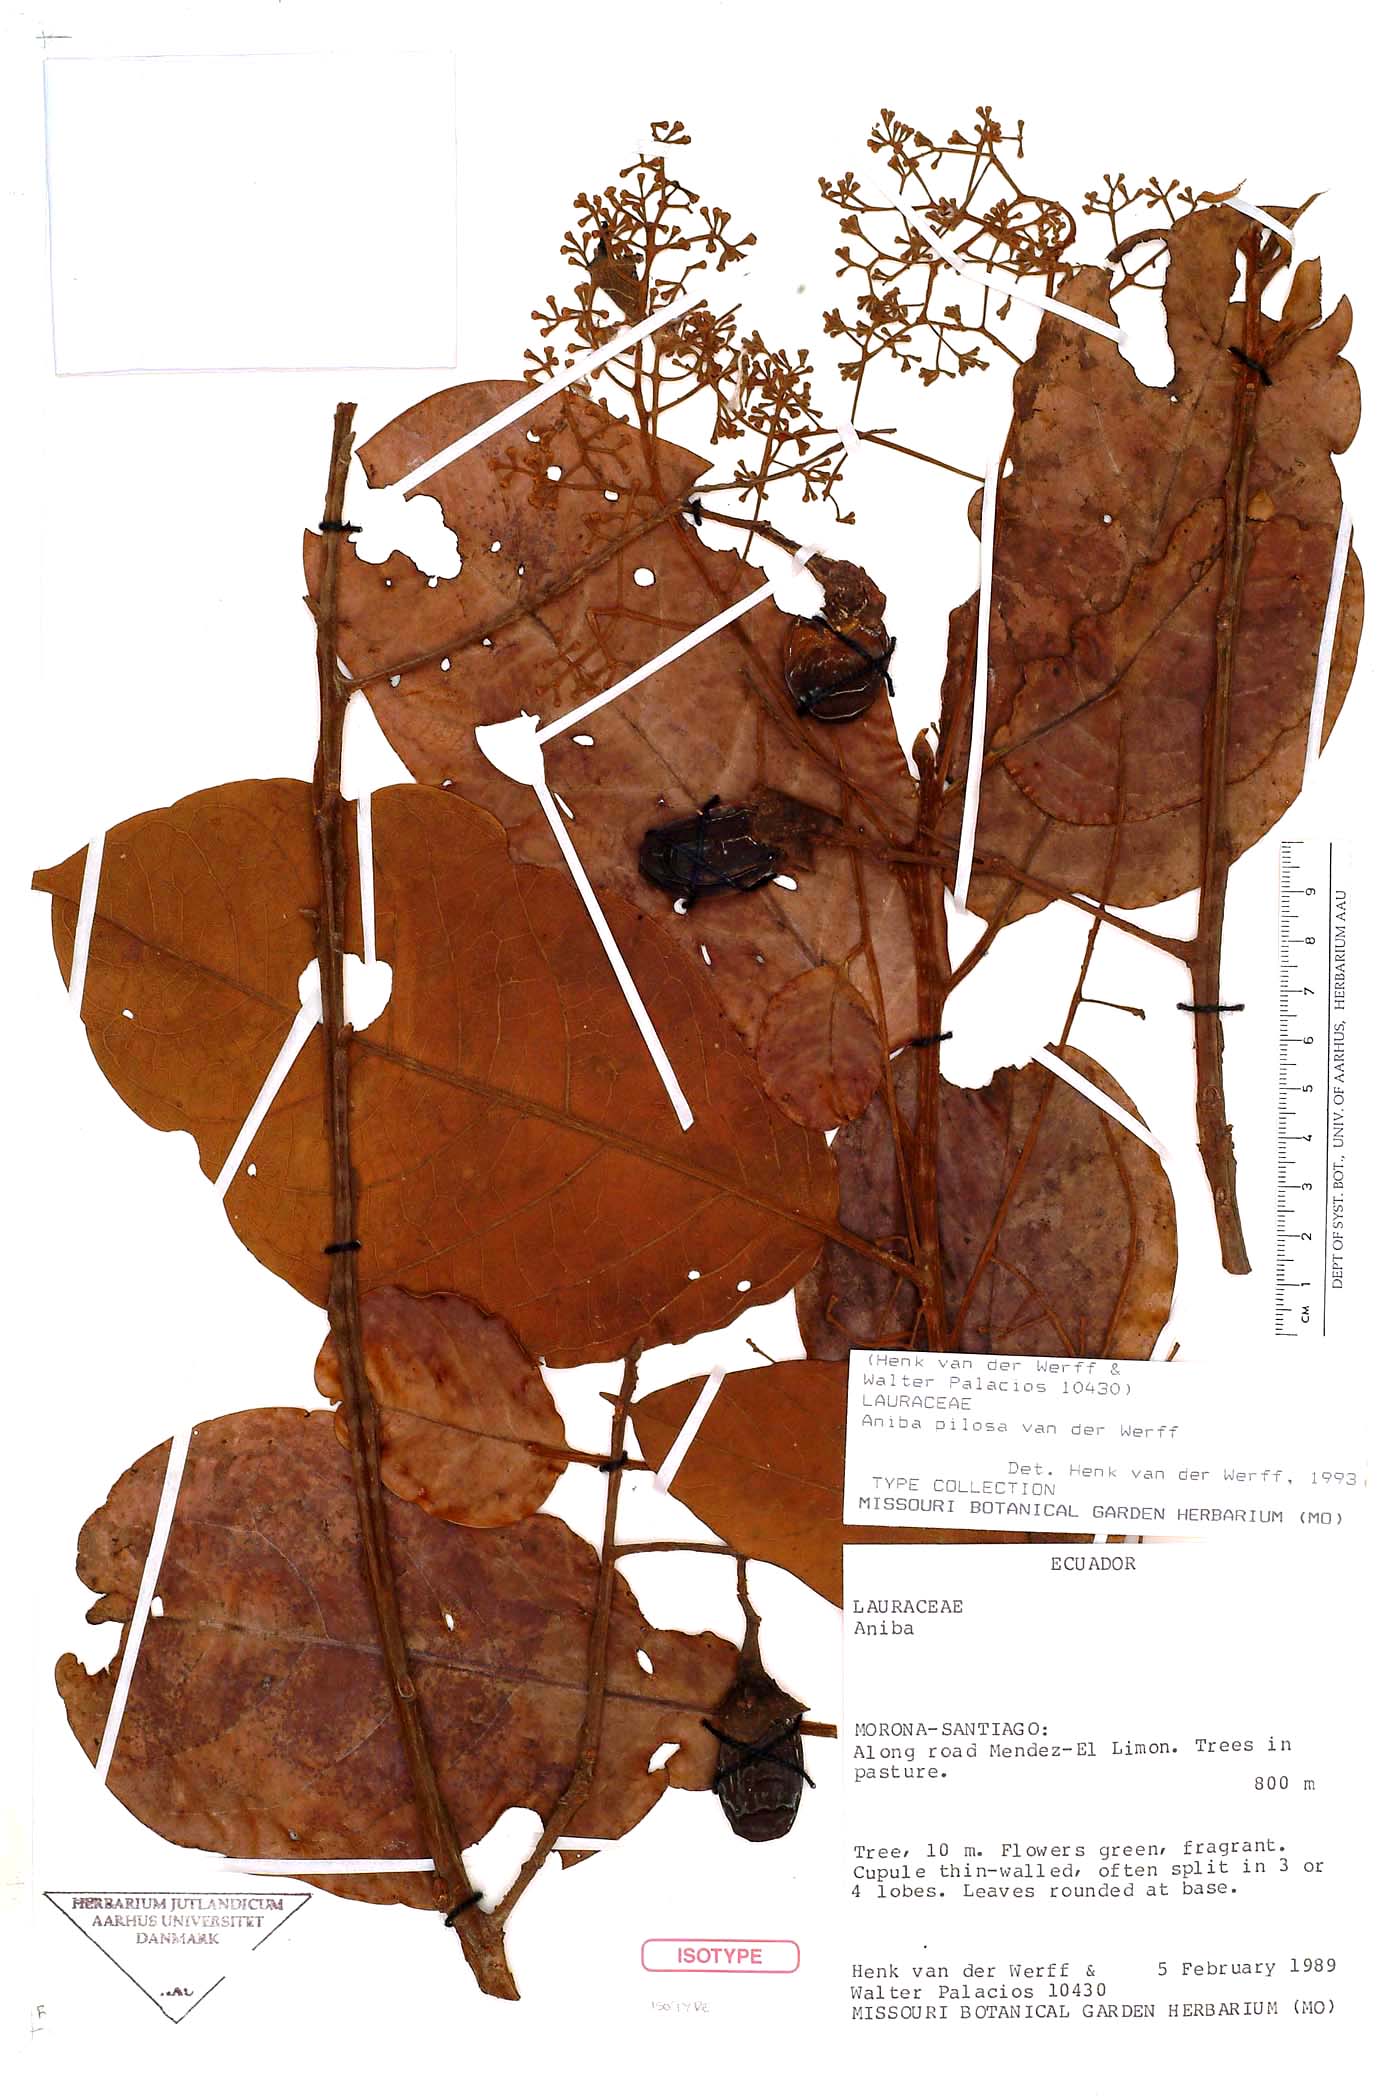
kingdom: Plantae
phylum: Tracheophyta
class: Magnoliopsida
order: Laurales
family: Lauraceae
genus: Aniba
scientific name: Aniba pilosa
